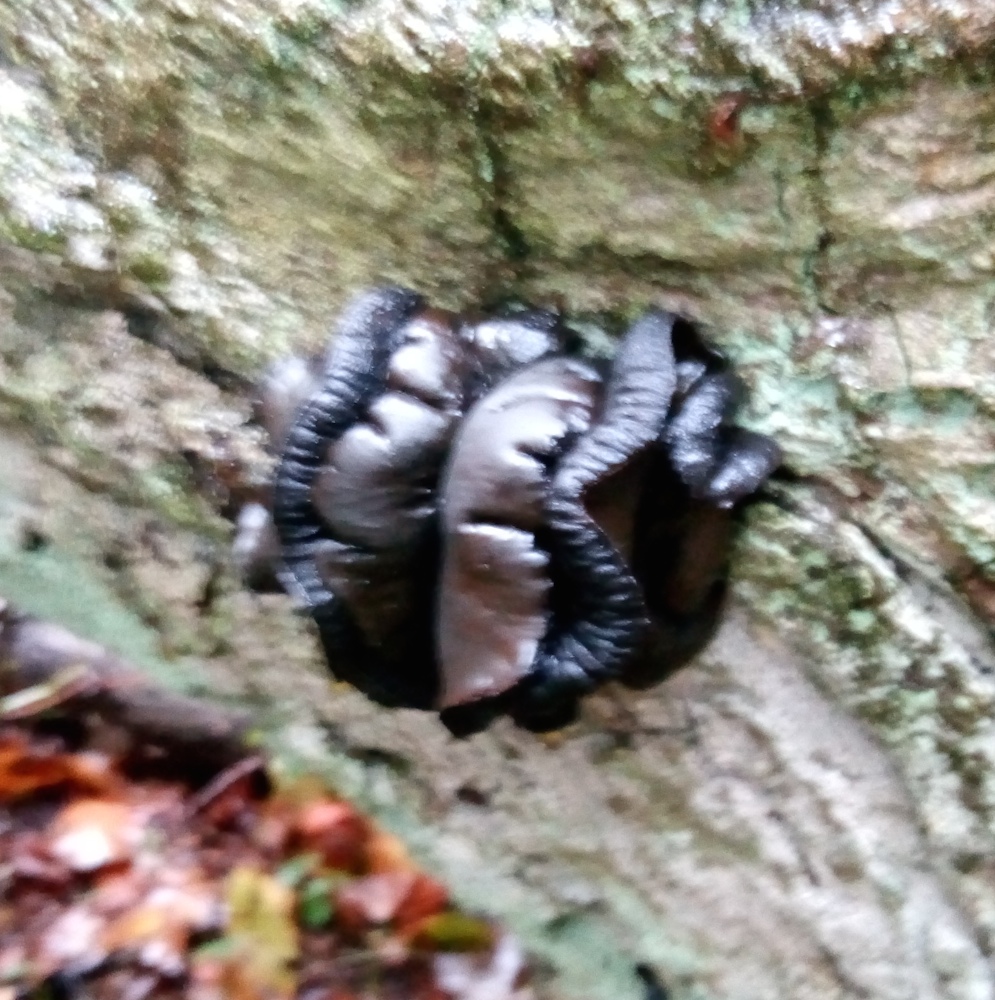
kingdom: Fungi
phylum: Ascomycota
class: Leotiomycetes
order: Phacidiales
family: Phacidiaceae
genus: Bulgaria
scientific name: Bulgaria inquinans
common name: afsmittende topsvamp
